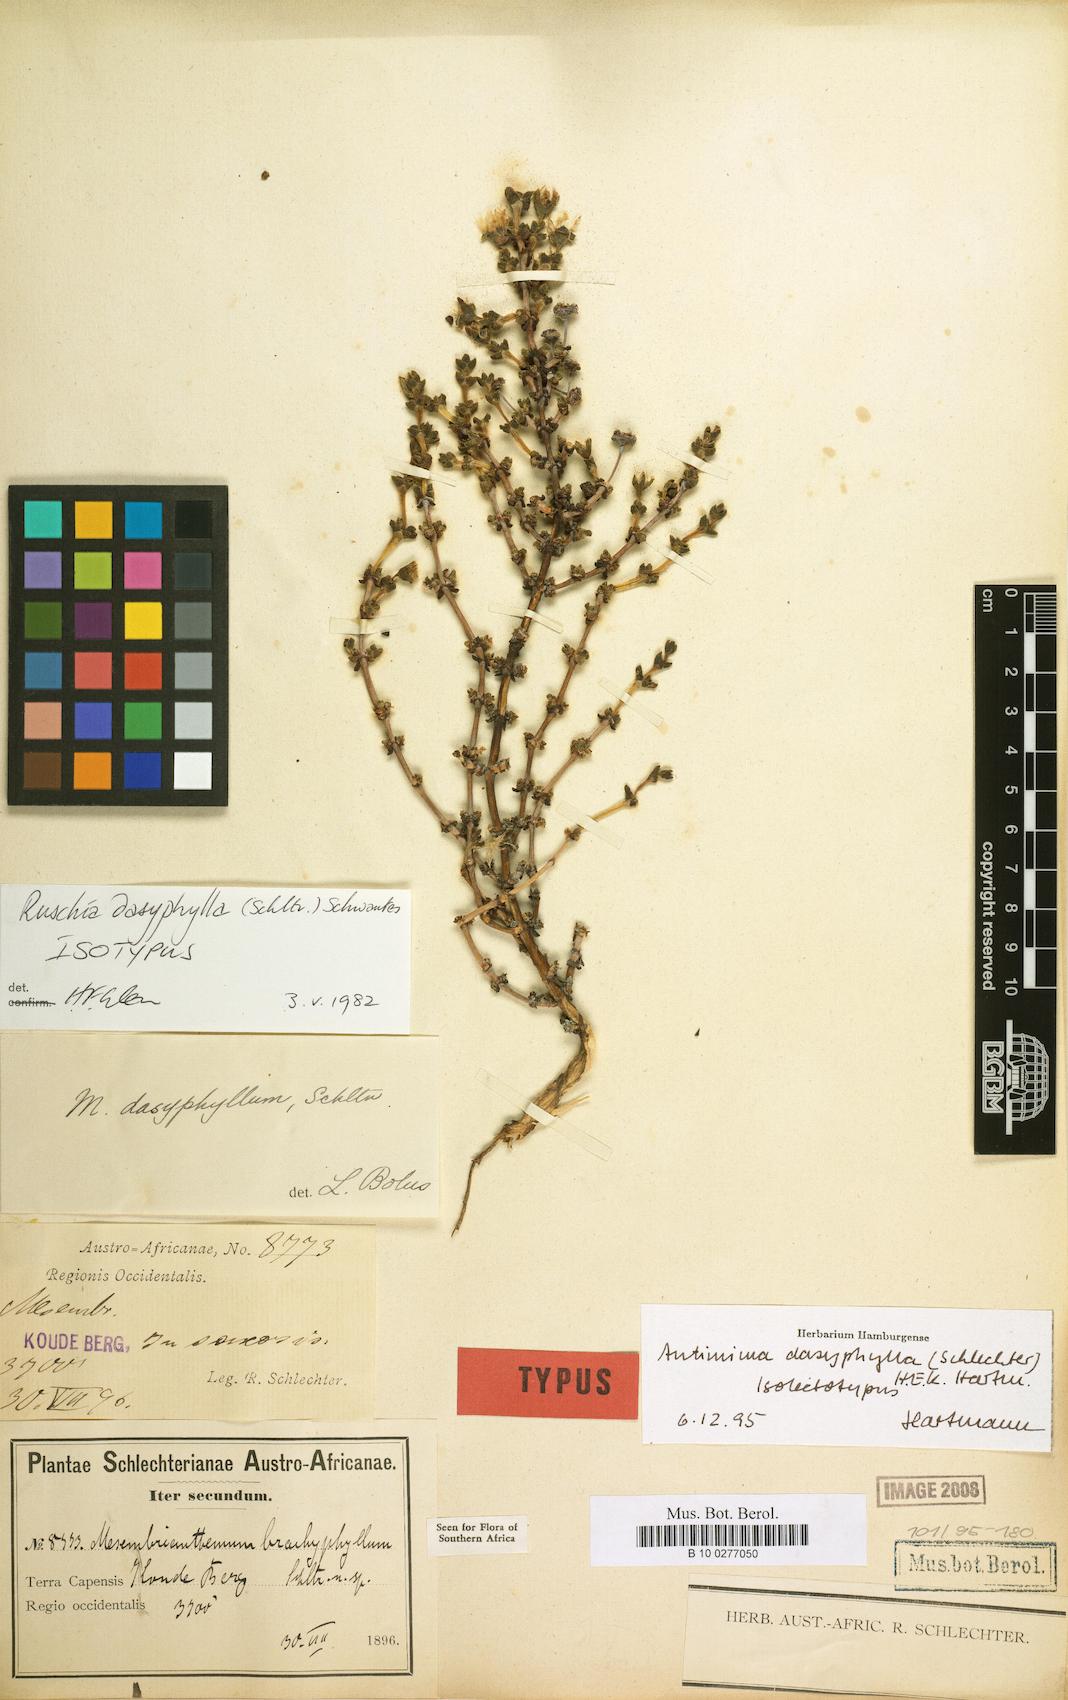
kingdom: Plantae
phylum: Tracheophyta
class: Magnoliopsida
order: Caryophyllales
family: Aizoaceae
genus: Antimima
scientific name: Antimima dasyphylla
